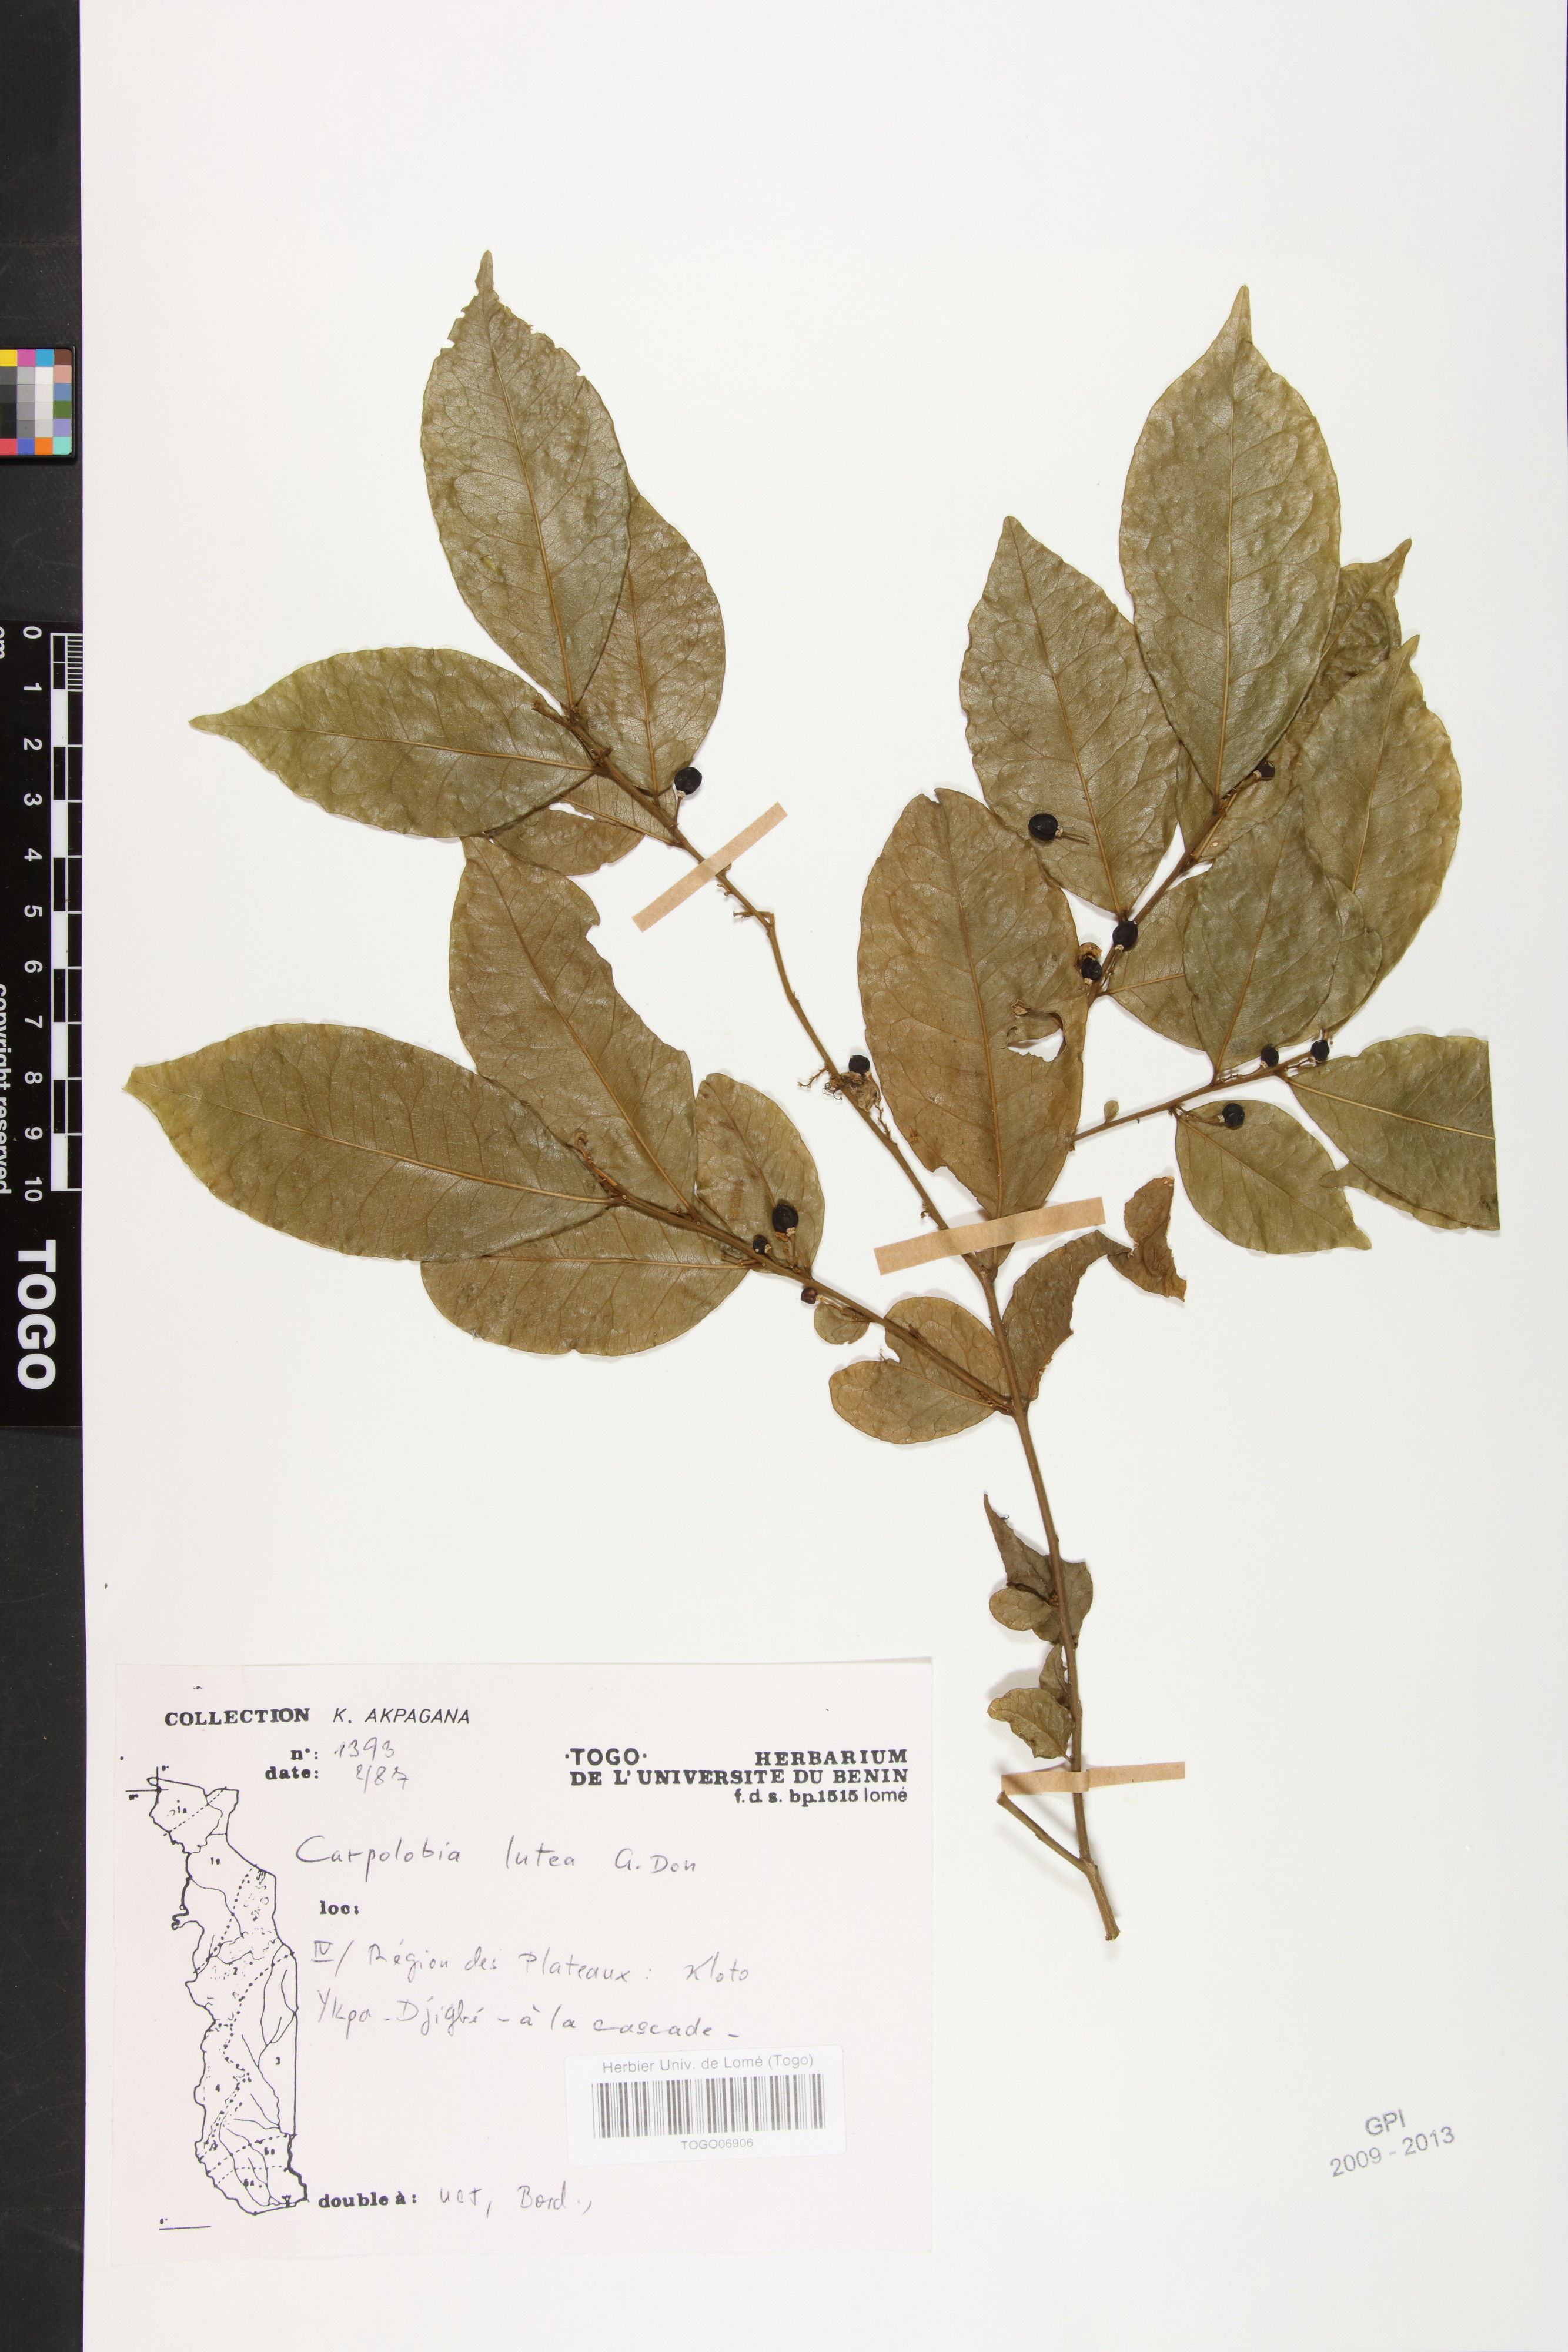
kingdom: Plantae
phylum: Tracheophyta
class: Magnoliopsida
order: Fabales
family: Polygalaceae
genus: Carpolobia
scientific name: Carpolobia lutea
